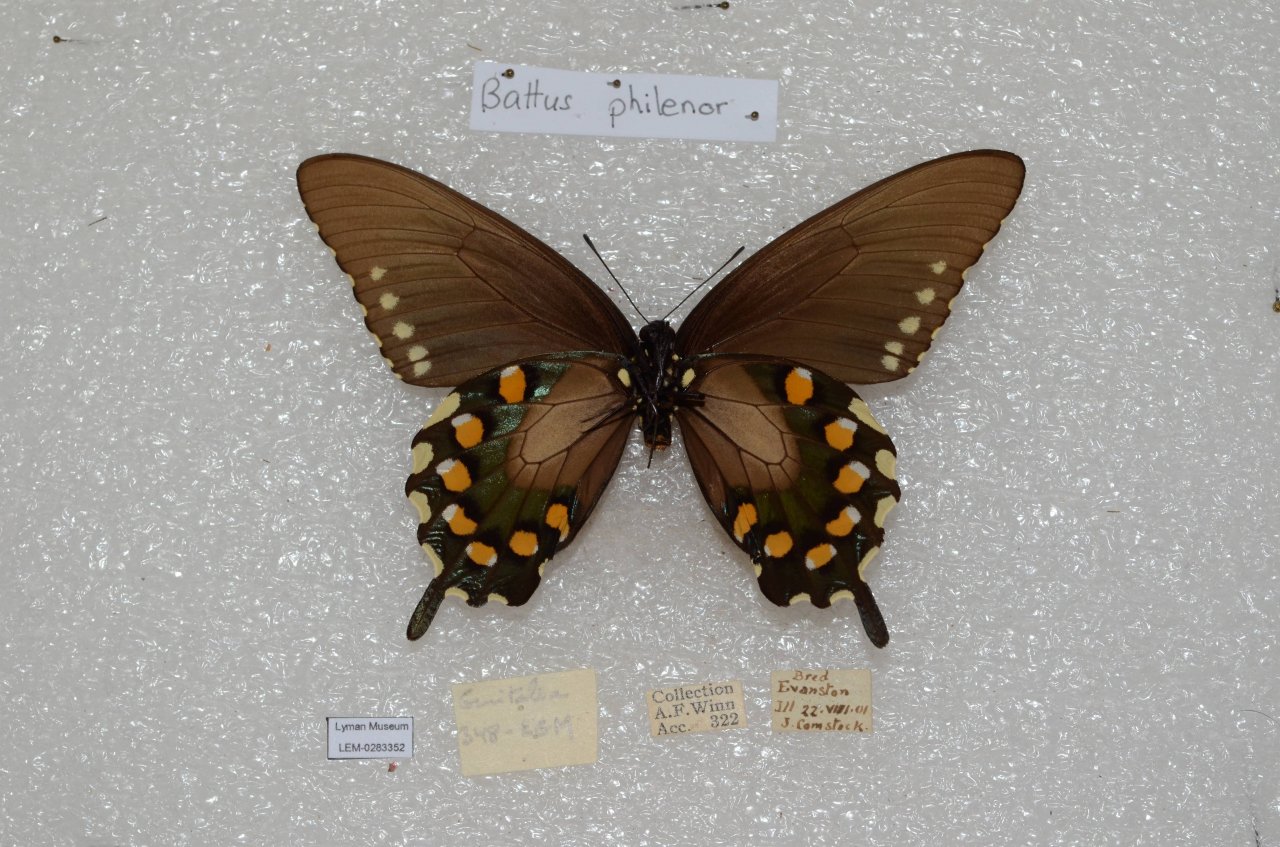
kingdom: Animalia
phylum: Arthropoda
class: Insecta
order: Lepidoptera
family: Papilionidae
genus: Battus
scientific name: Battus philenor
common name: Pipevine Swallowtail
